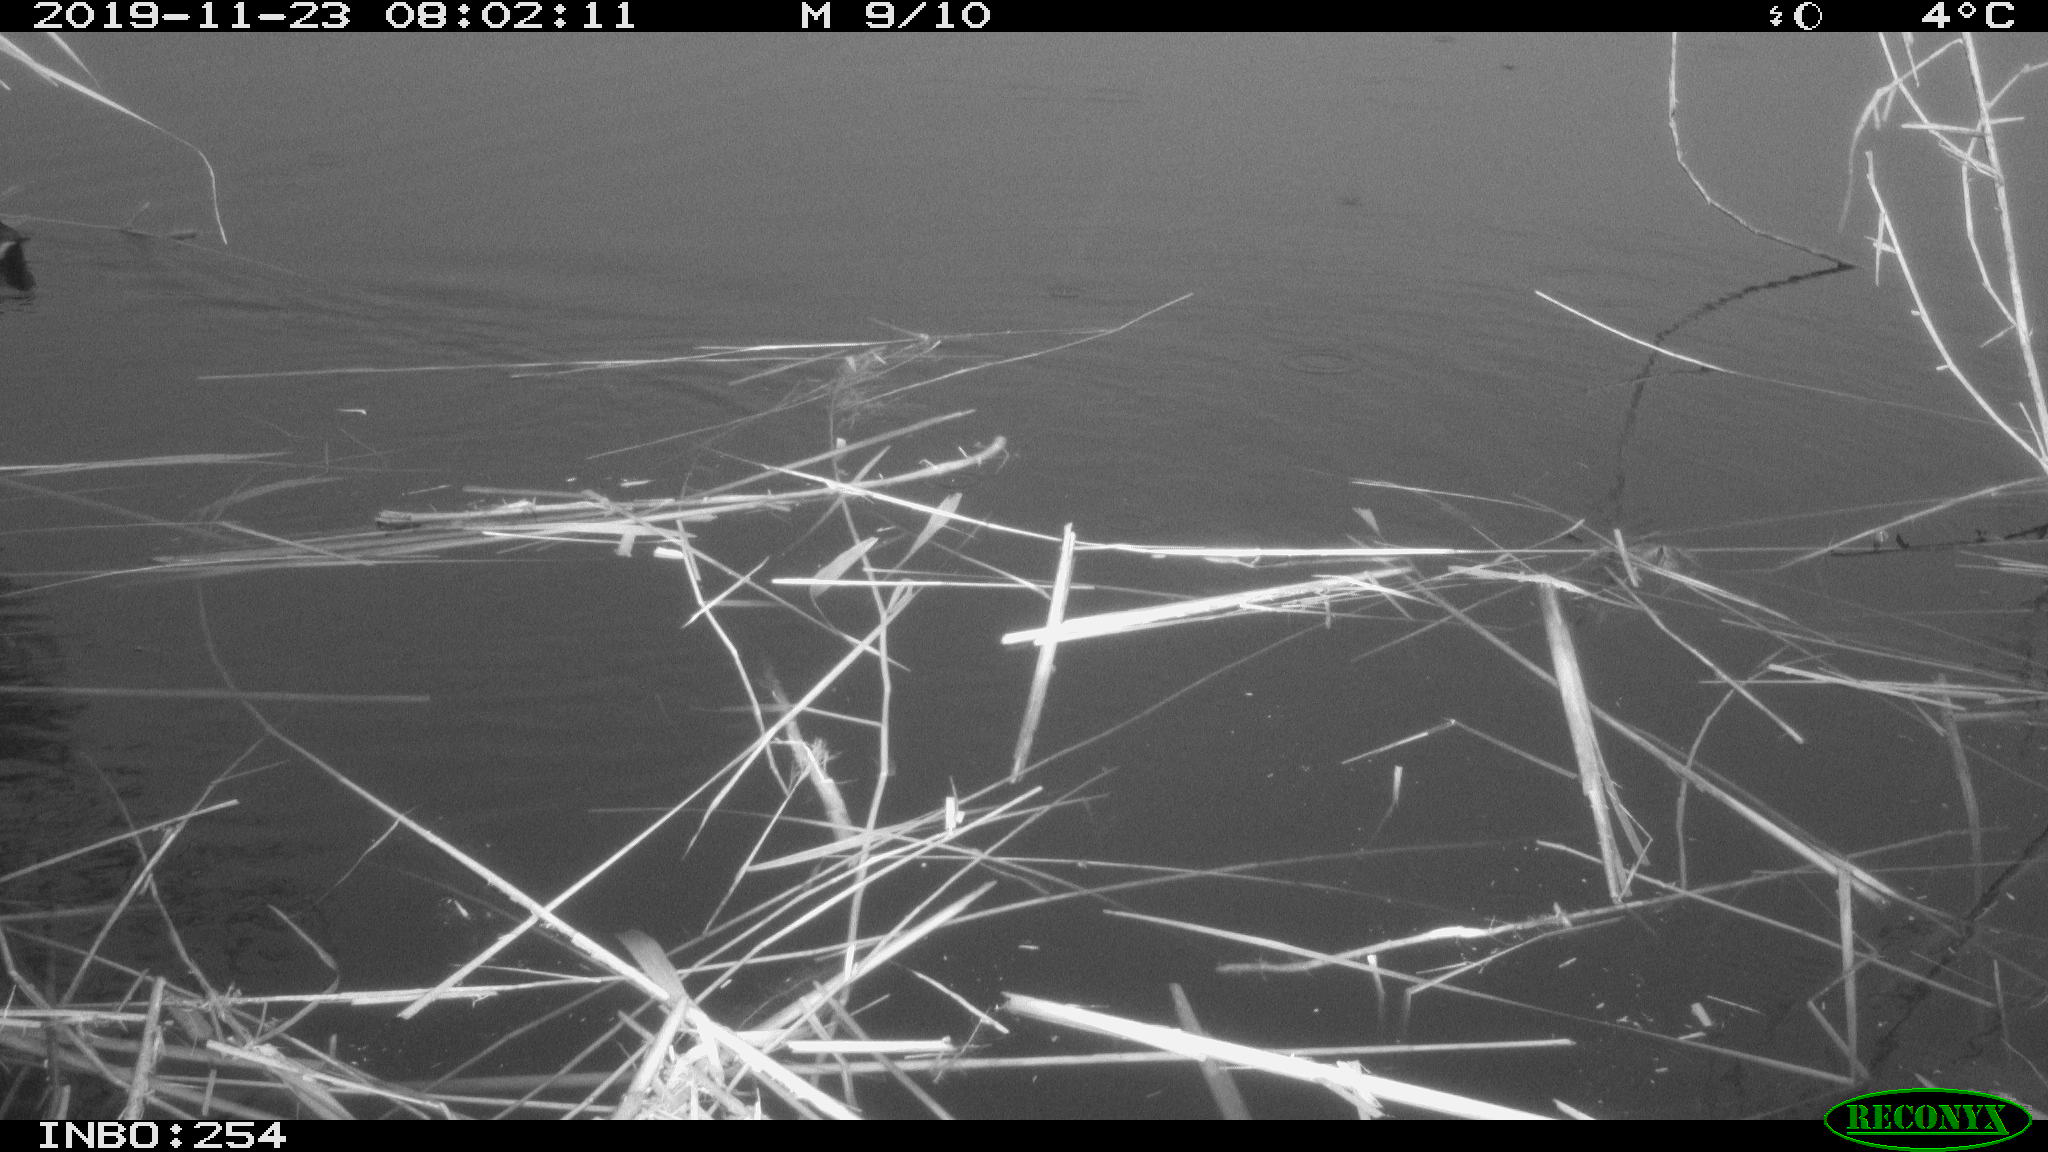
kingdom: Animalia
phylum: Chordata
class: Aves
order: Gruiformes
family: Rallidae
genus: Gallinula
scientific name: Gallinula chloropus
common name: Common moorhen
